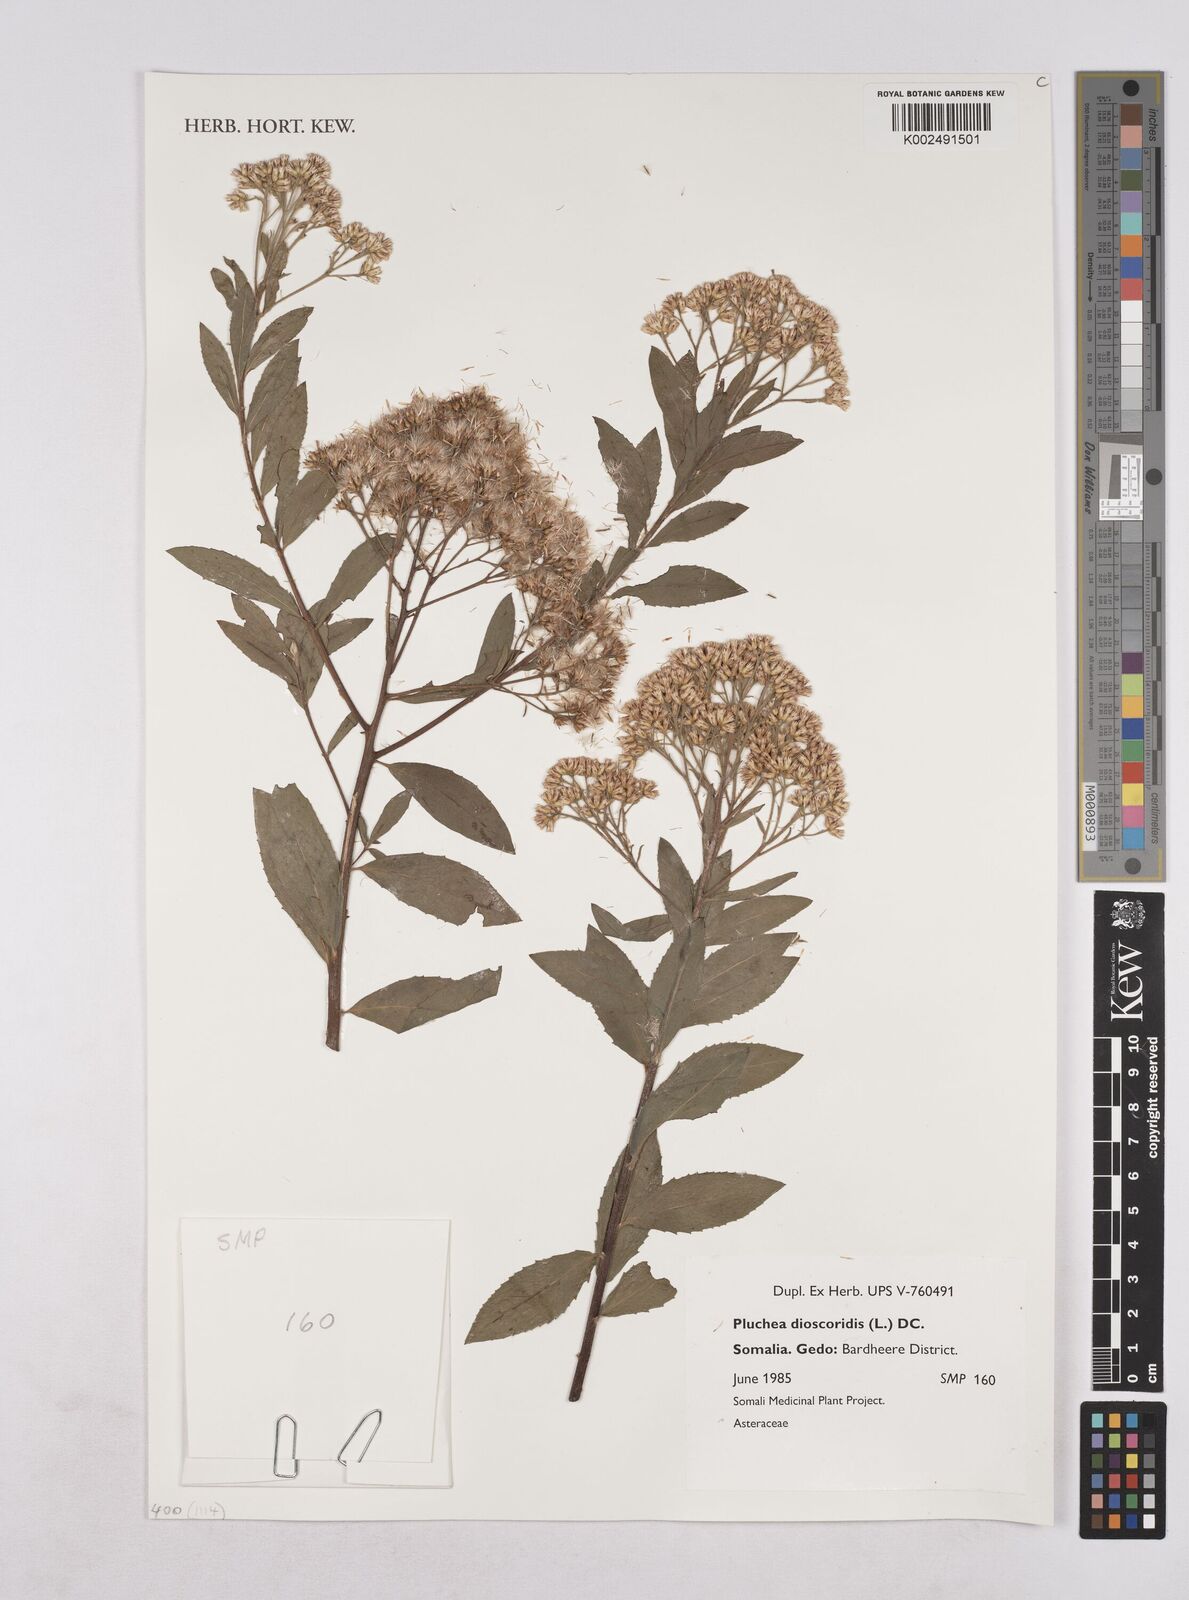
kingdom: Plantae
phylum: Tracheophyta
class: Magnoliopsida
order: Asterales
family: Asteraceae
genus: Pluchea
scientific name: Pluchea dioscoridis
